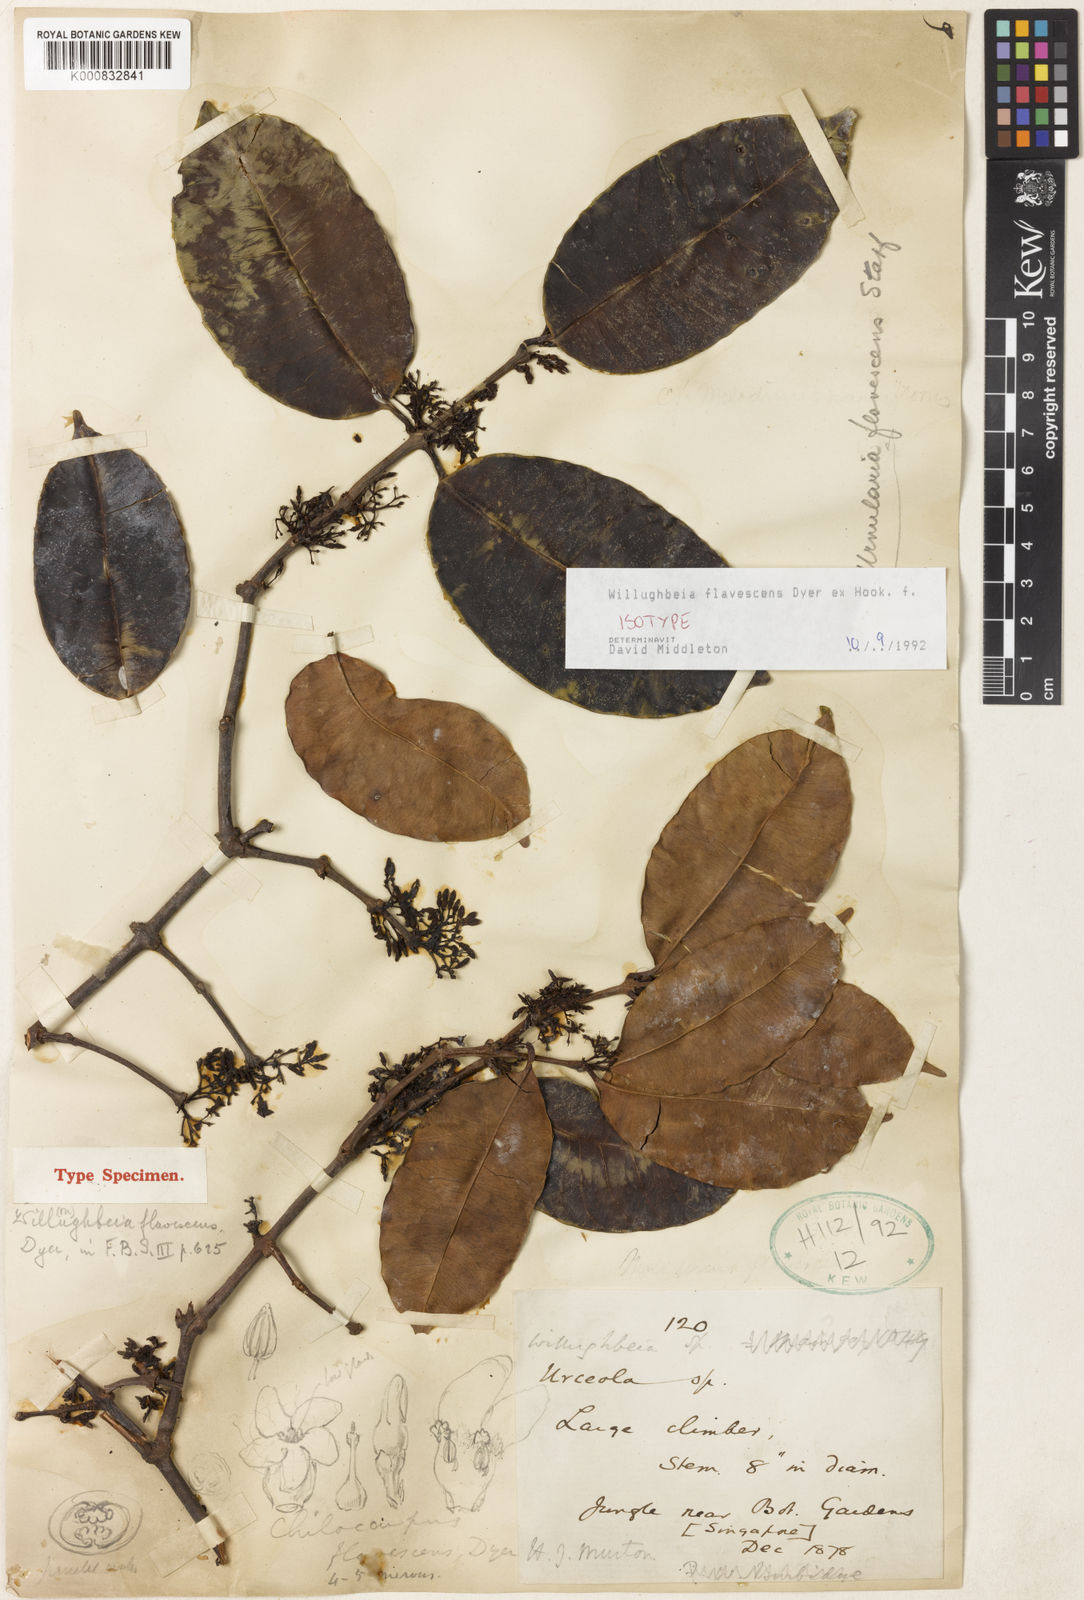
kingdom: Plantae
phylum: Tracheophyta
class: Magnoliopsida
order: Gentianales
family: Apocynaceae
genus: Willughbeia
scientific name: Willughbeia flavescens
